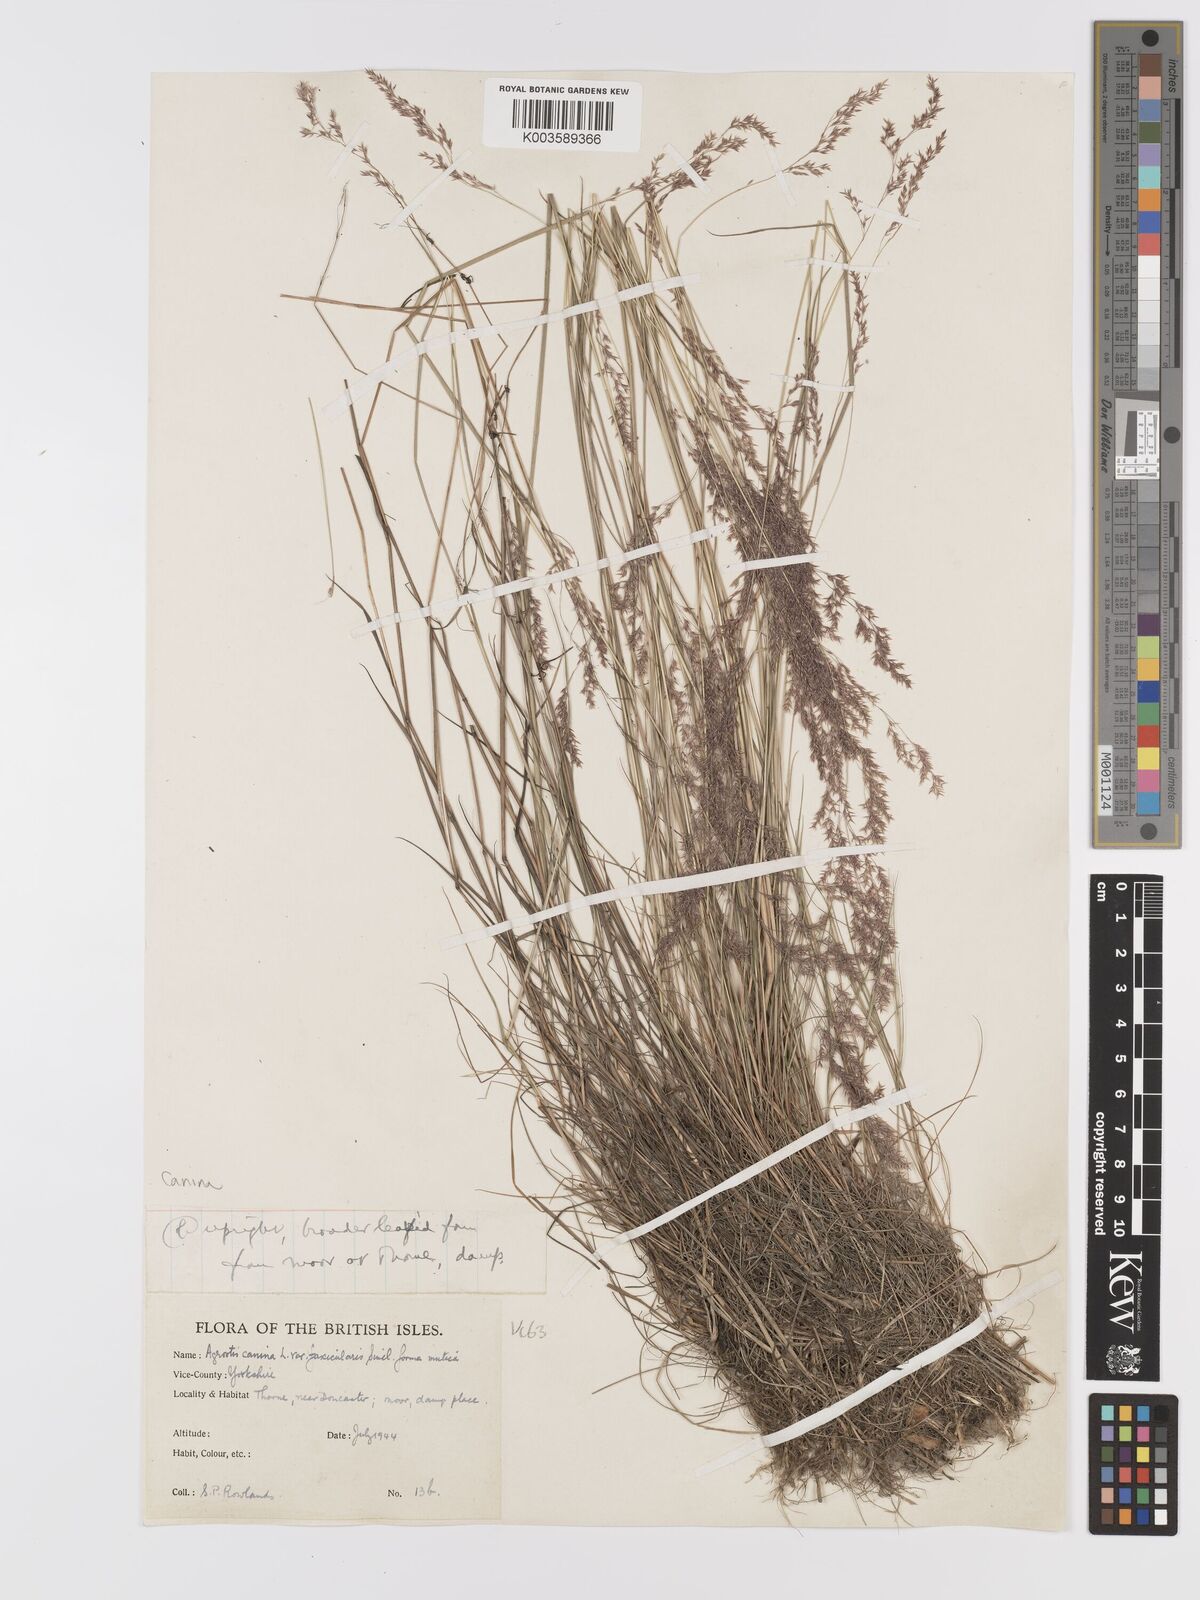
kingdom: Plantae
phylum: Tracheophyta
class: Liliopsida
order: Poales
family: Poaceae
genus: Agrostis
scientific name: Agrostis canina
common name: Velvet bent
